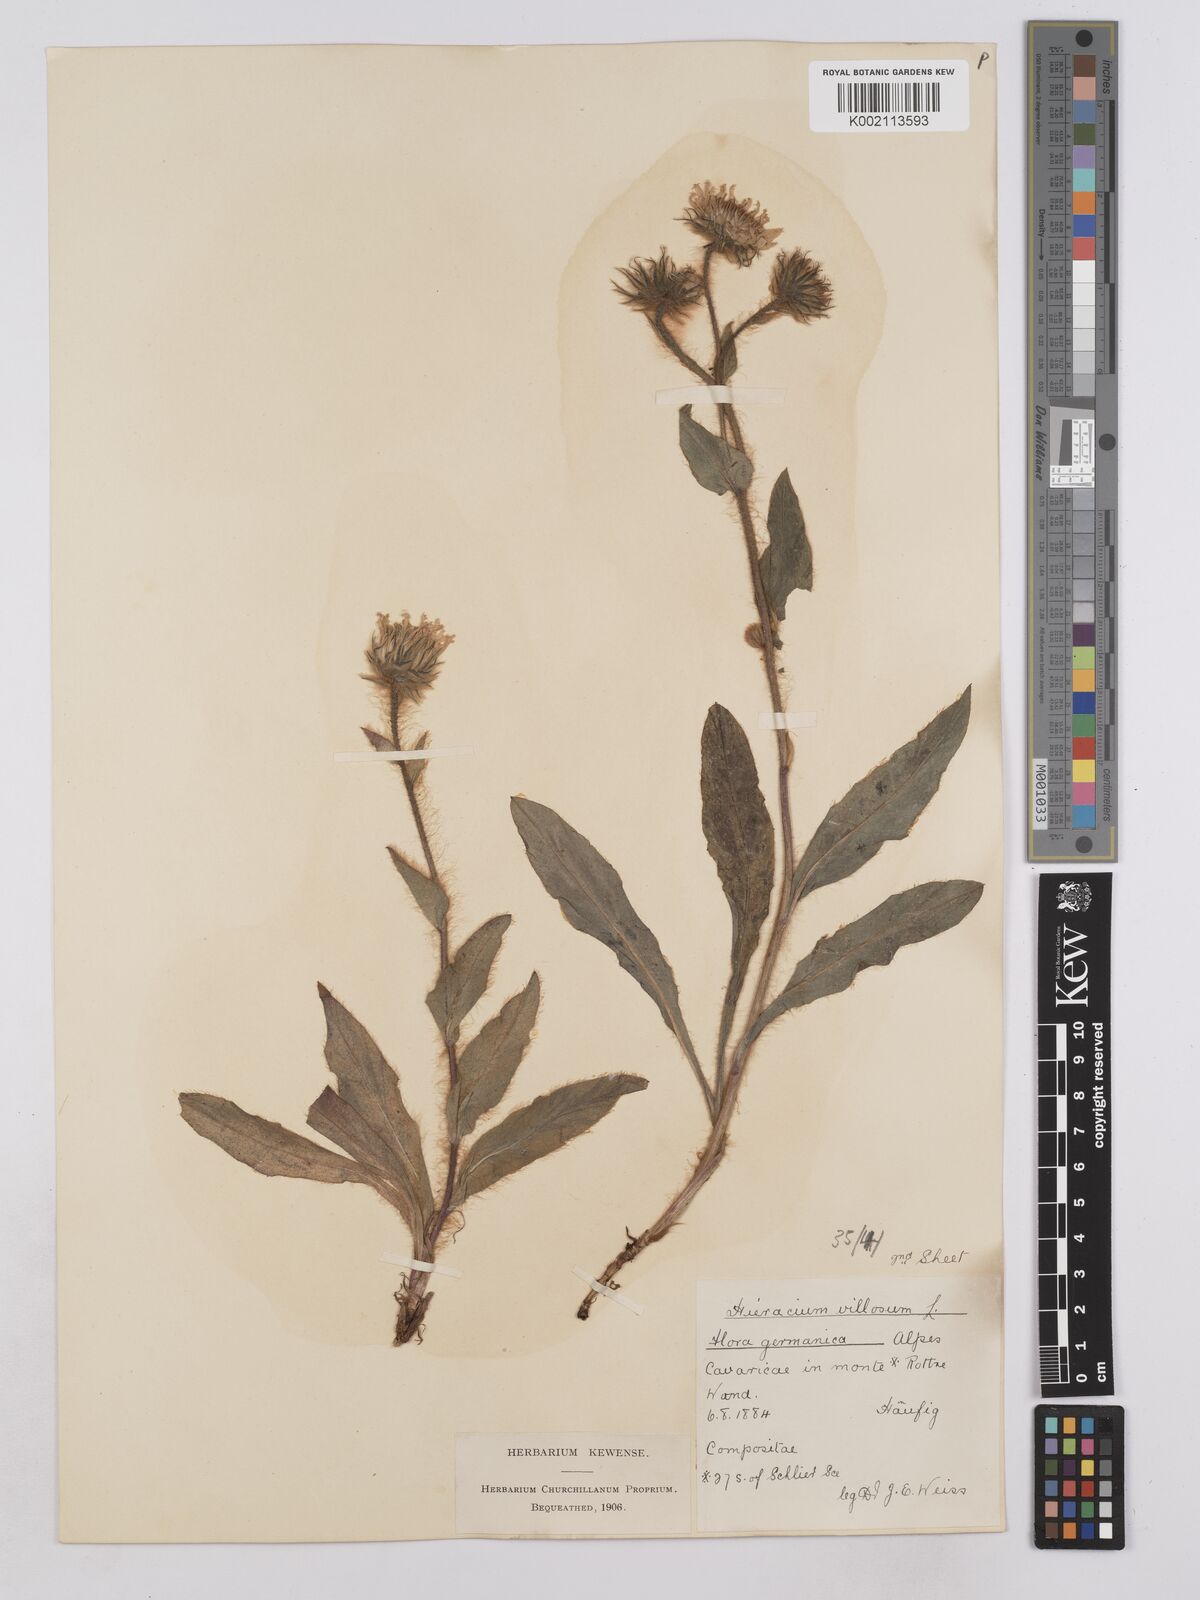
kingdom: Plantae
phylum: Tracheophyta
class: Magnoliopsida
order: Asterales
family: Asteraceae
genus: Hieracium
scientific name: Hieracium
